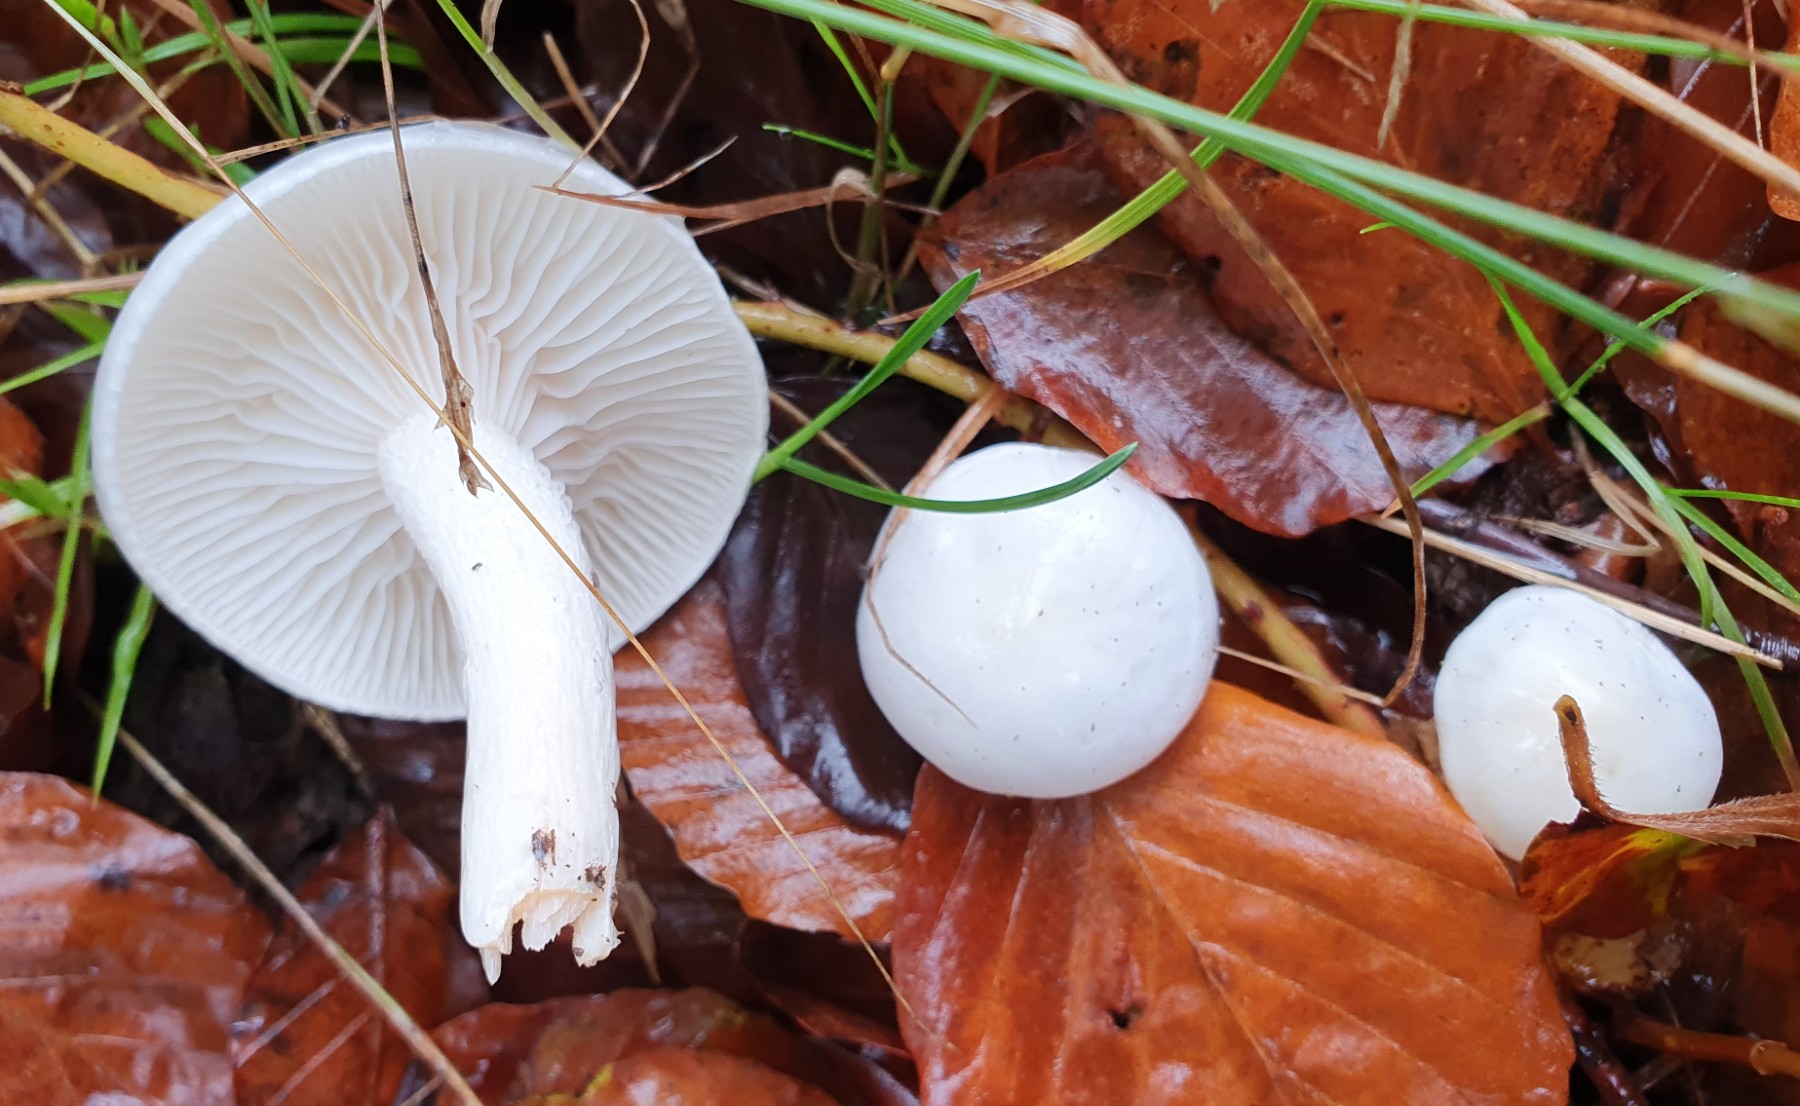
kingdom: Fungi
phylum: Basidiomycota
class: Agaricomycetes
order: Agaricales
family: Hygrophoraceae
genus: Hygrophorus
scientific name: Hygrophorus eburneus
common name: elfenbens-sneglehat
